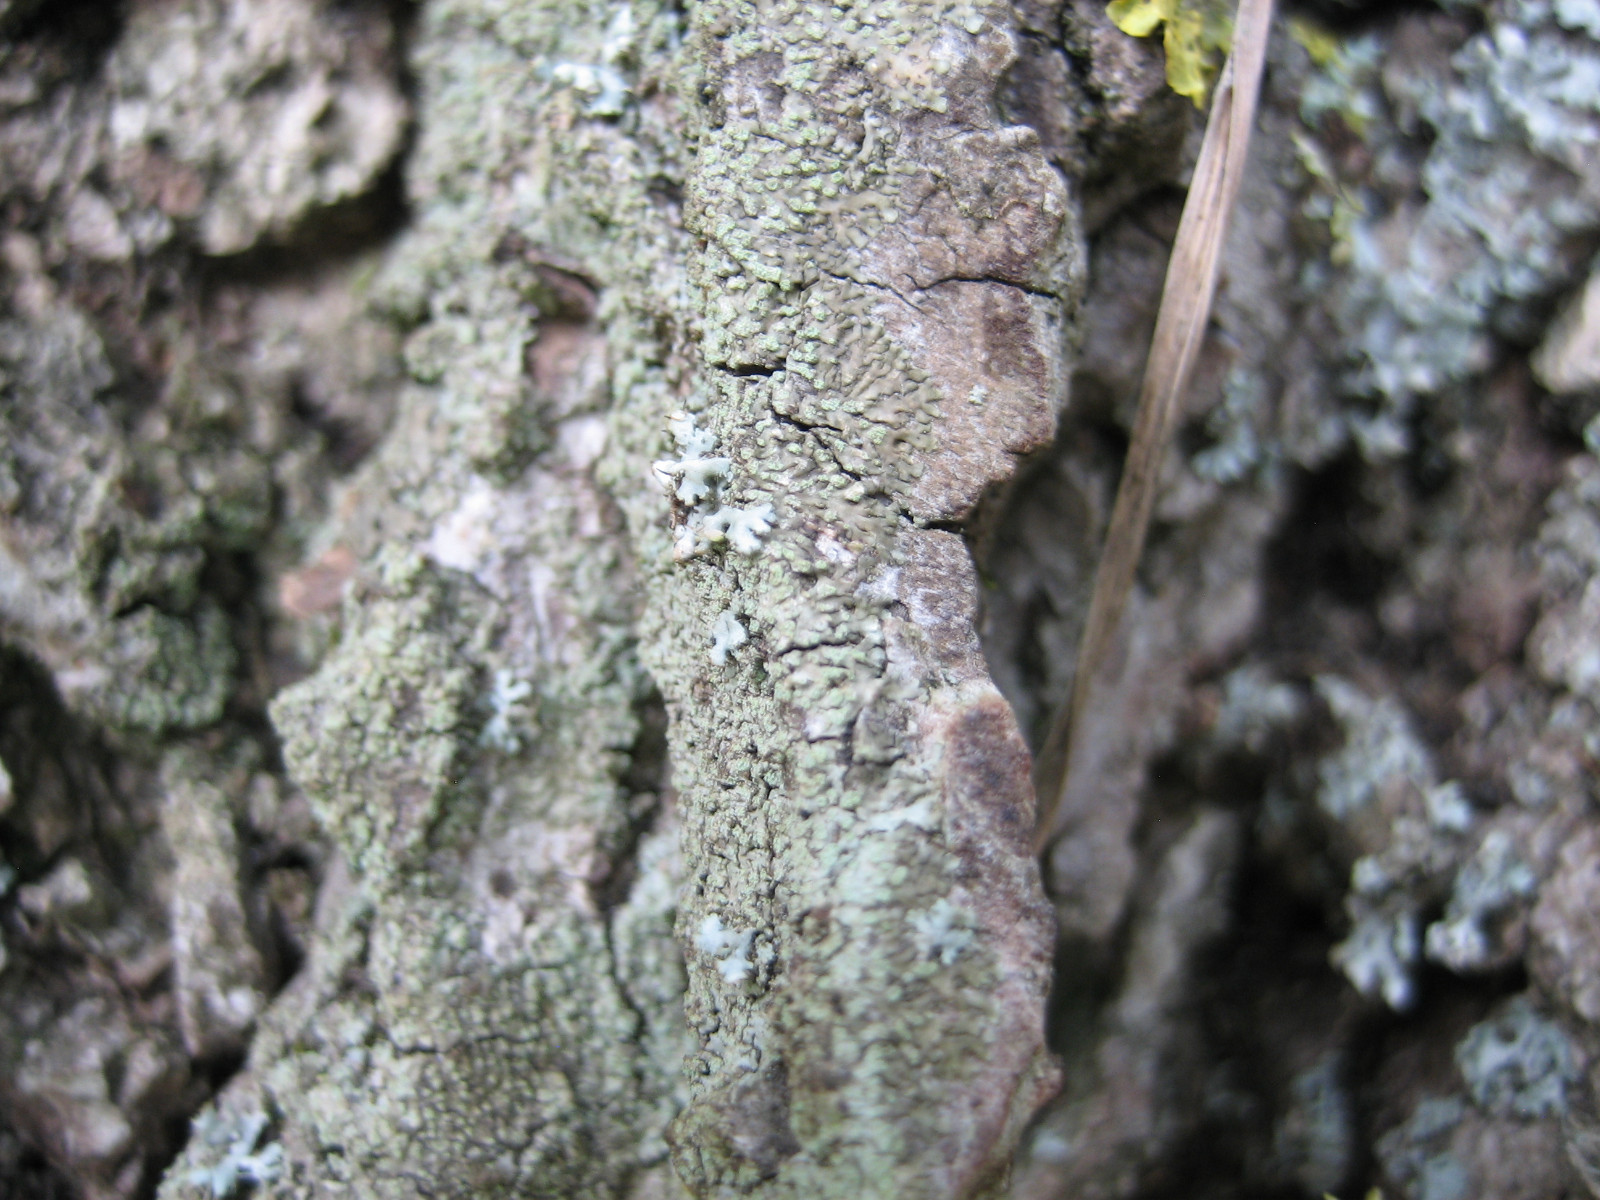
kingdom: Fungi
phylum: Ascomycota
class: Lecanoromycetes
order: Caliciales
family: Physciaceae
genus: Hyperphyscia
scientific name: Hyperphyscia adglutinata
